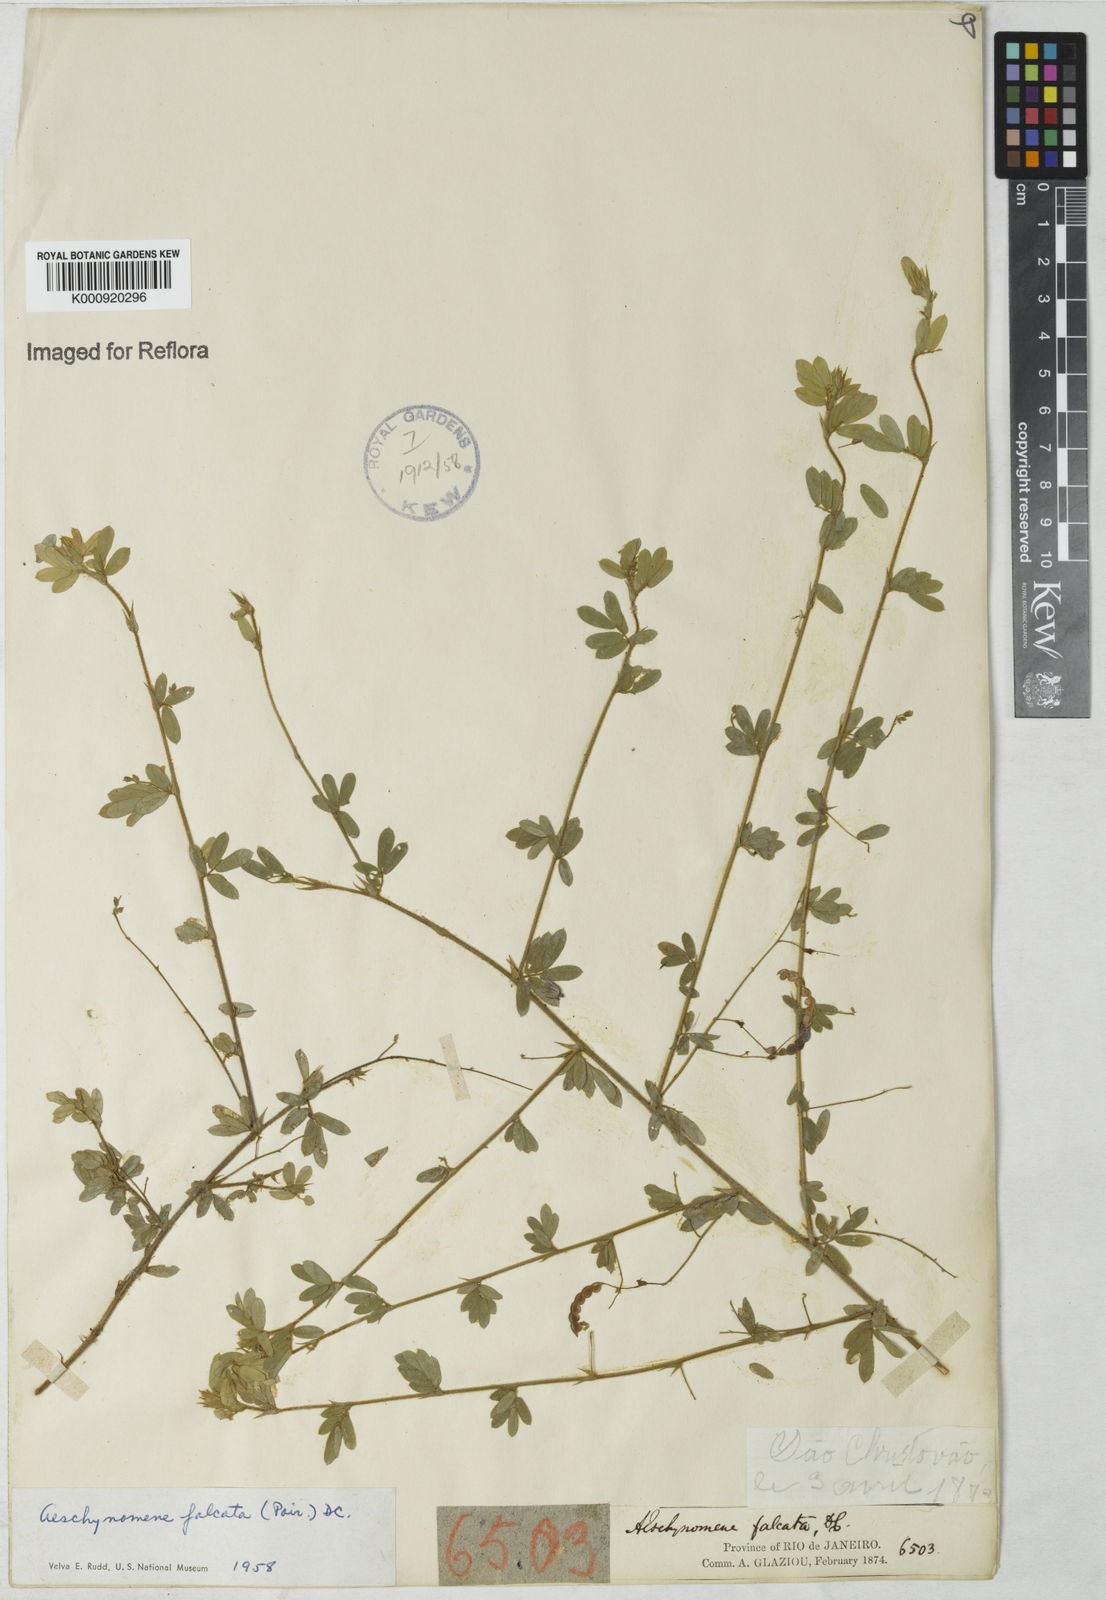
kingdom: Plantae
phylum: Tracheophyta
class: Magnoliopsida
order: Fabales
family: Fabaceae
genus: Aeschynomene
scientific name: Aeschynomene
